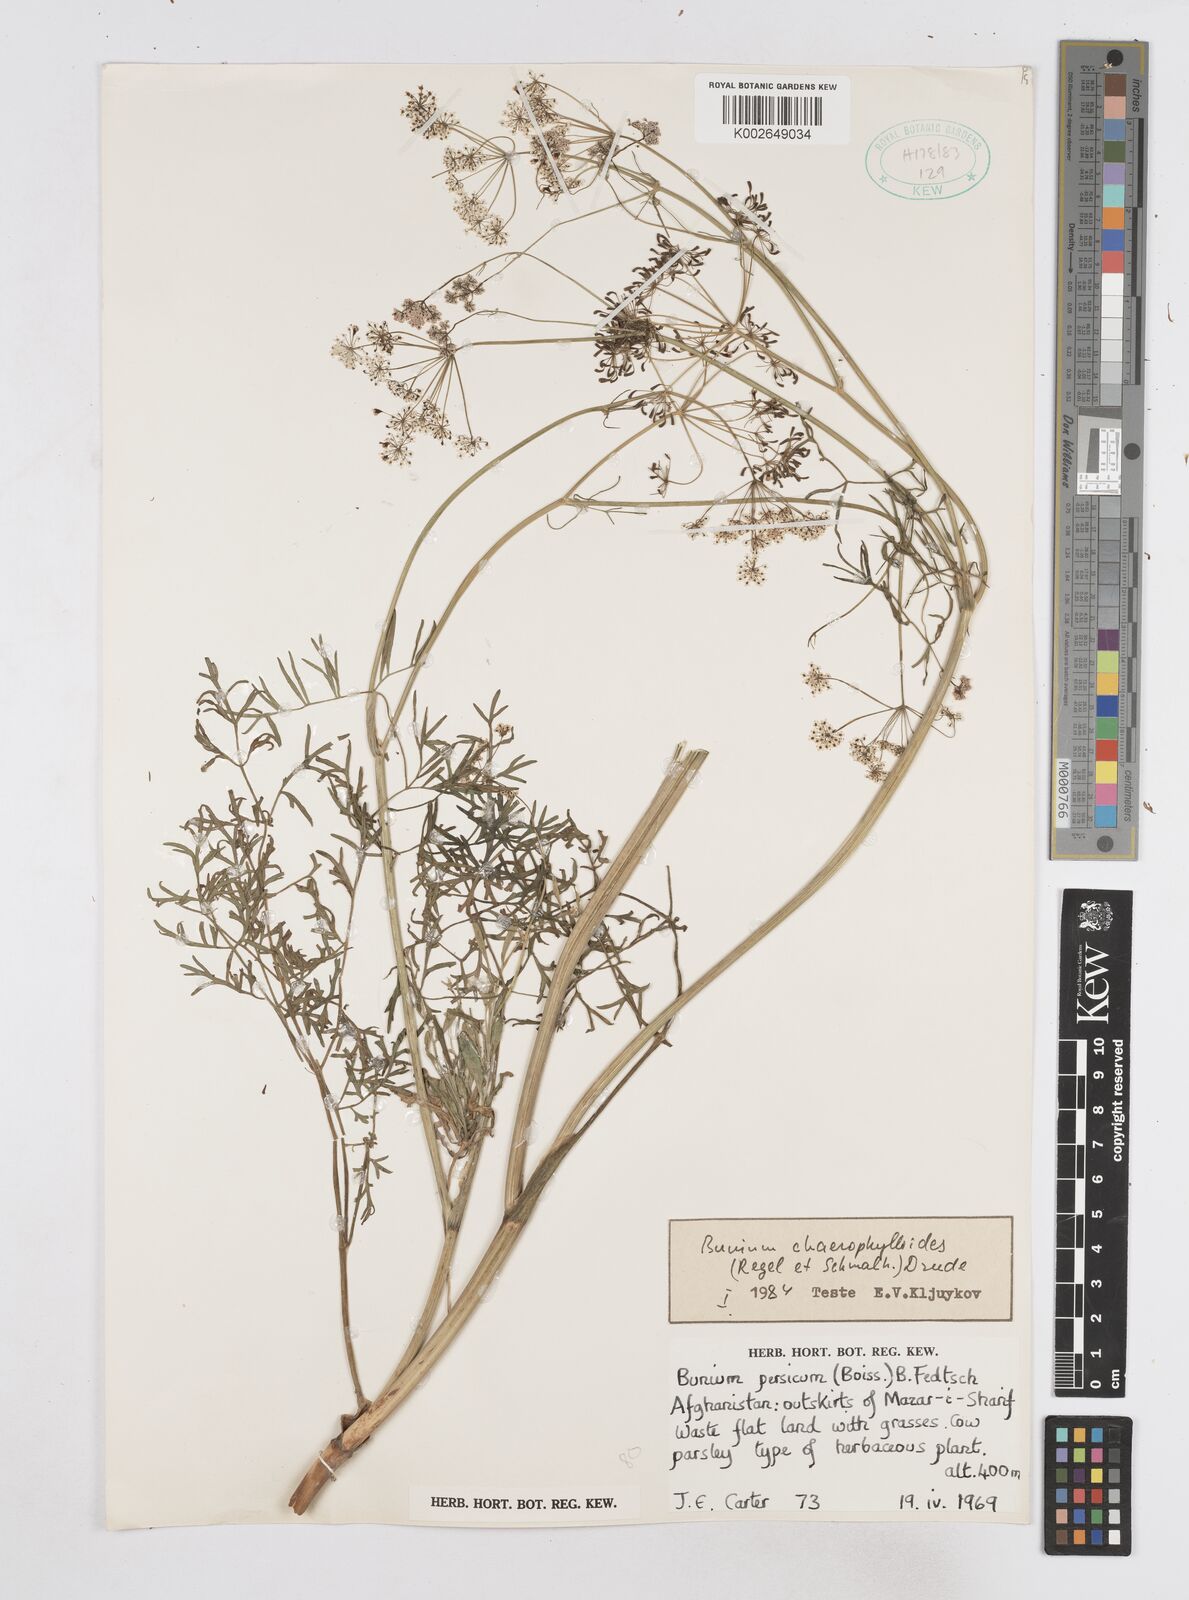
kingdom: Plantae
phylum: Tracheophyta
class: Magnoliopsida
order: Apiales
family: Apiaceae
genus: Elwendia
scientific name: Elwendia chaerophylloides
